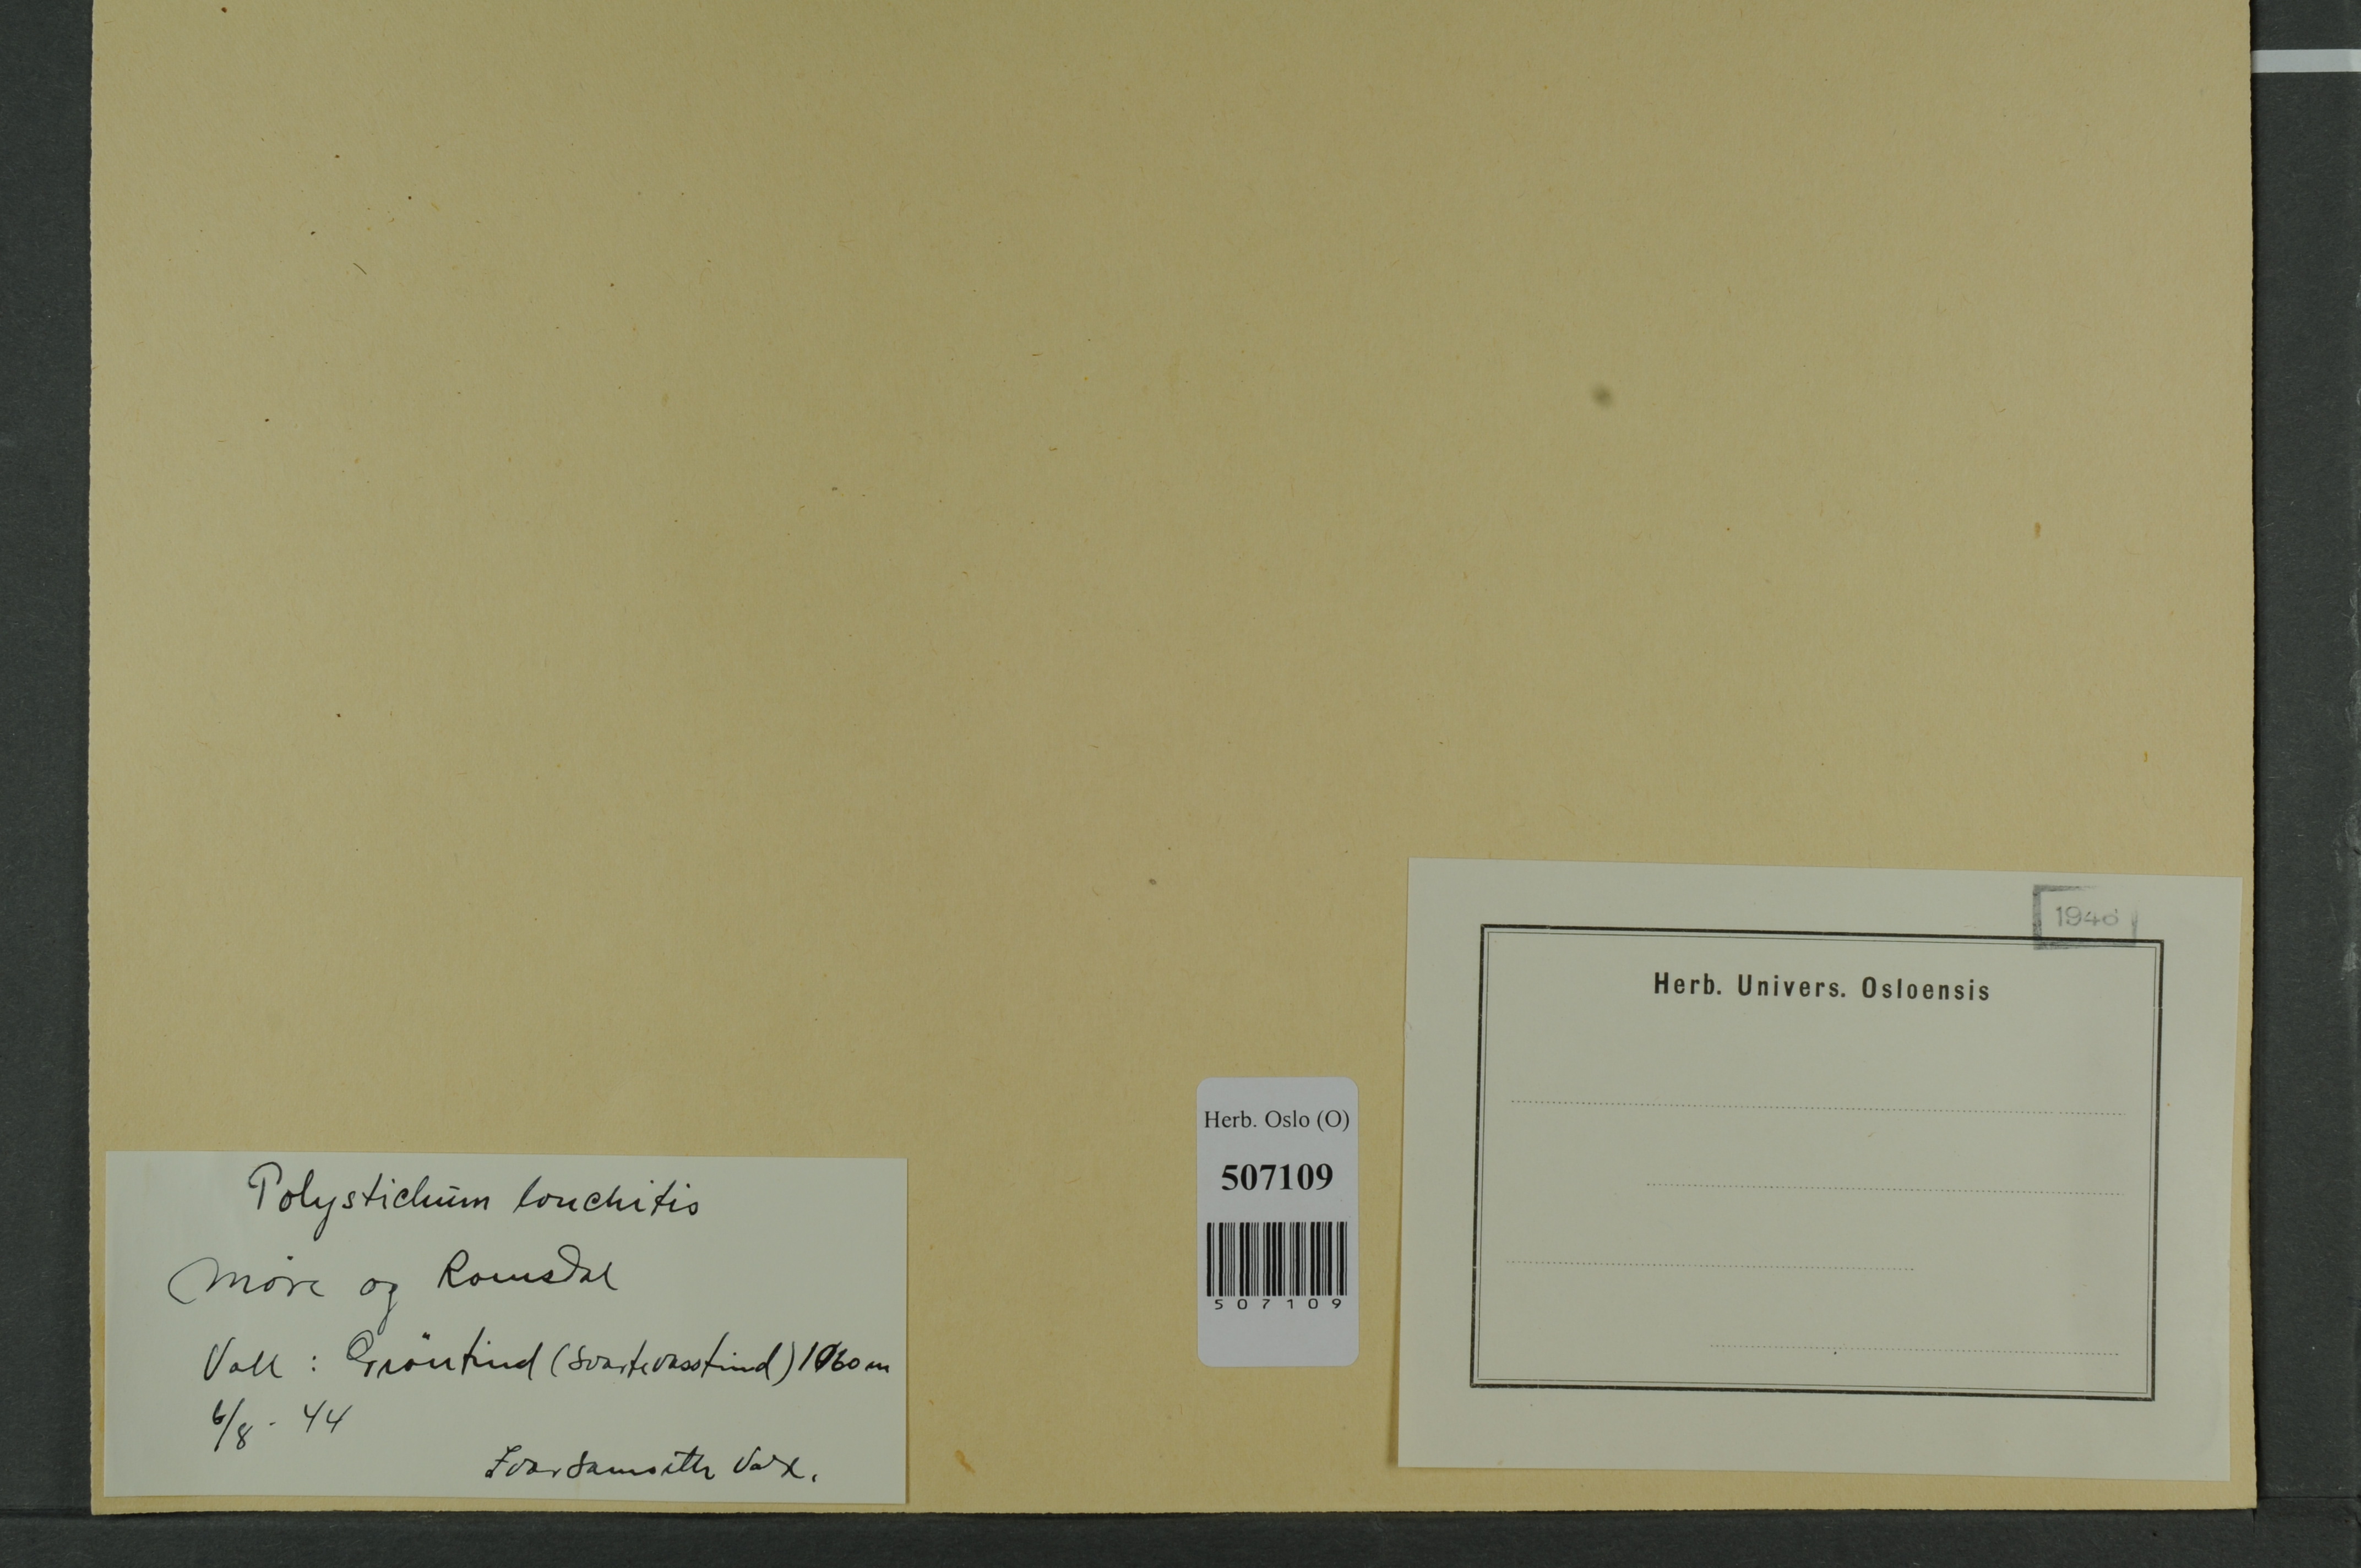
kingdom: Plantae
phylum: Tracheophyta
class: Polypodiopsida
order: Polypodiales
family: Dryopteridaceae
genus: Polystichum
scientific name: Polystichum lonchitis
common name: Holly fern
